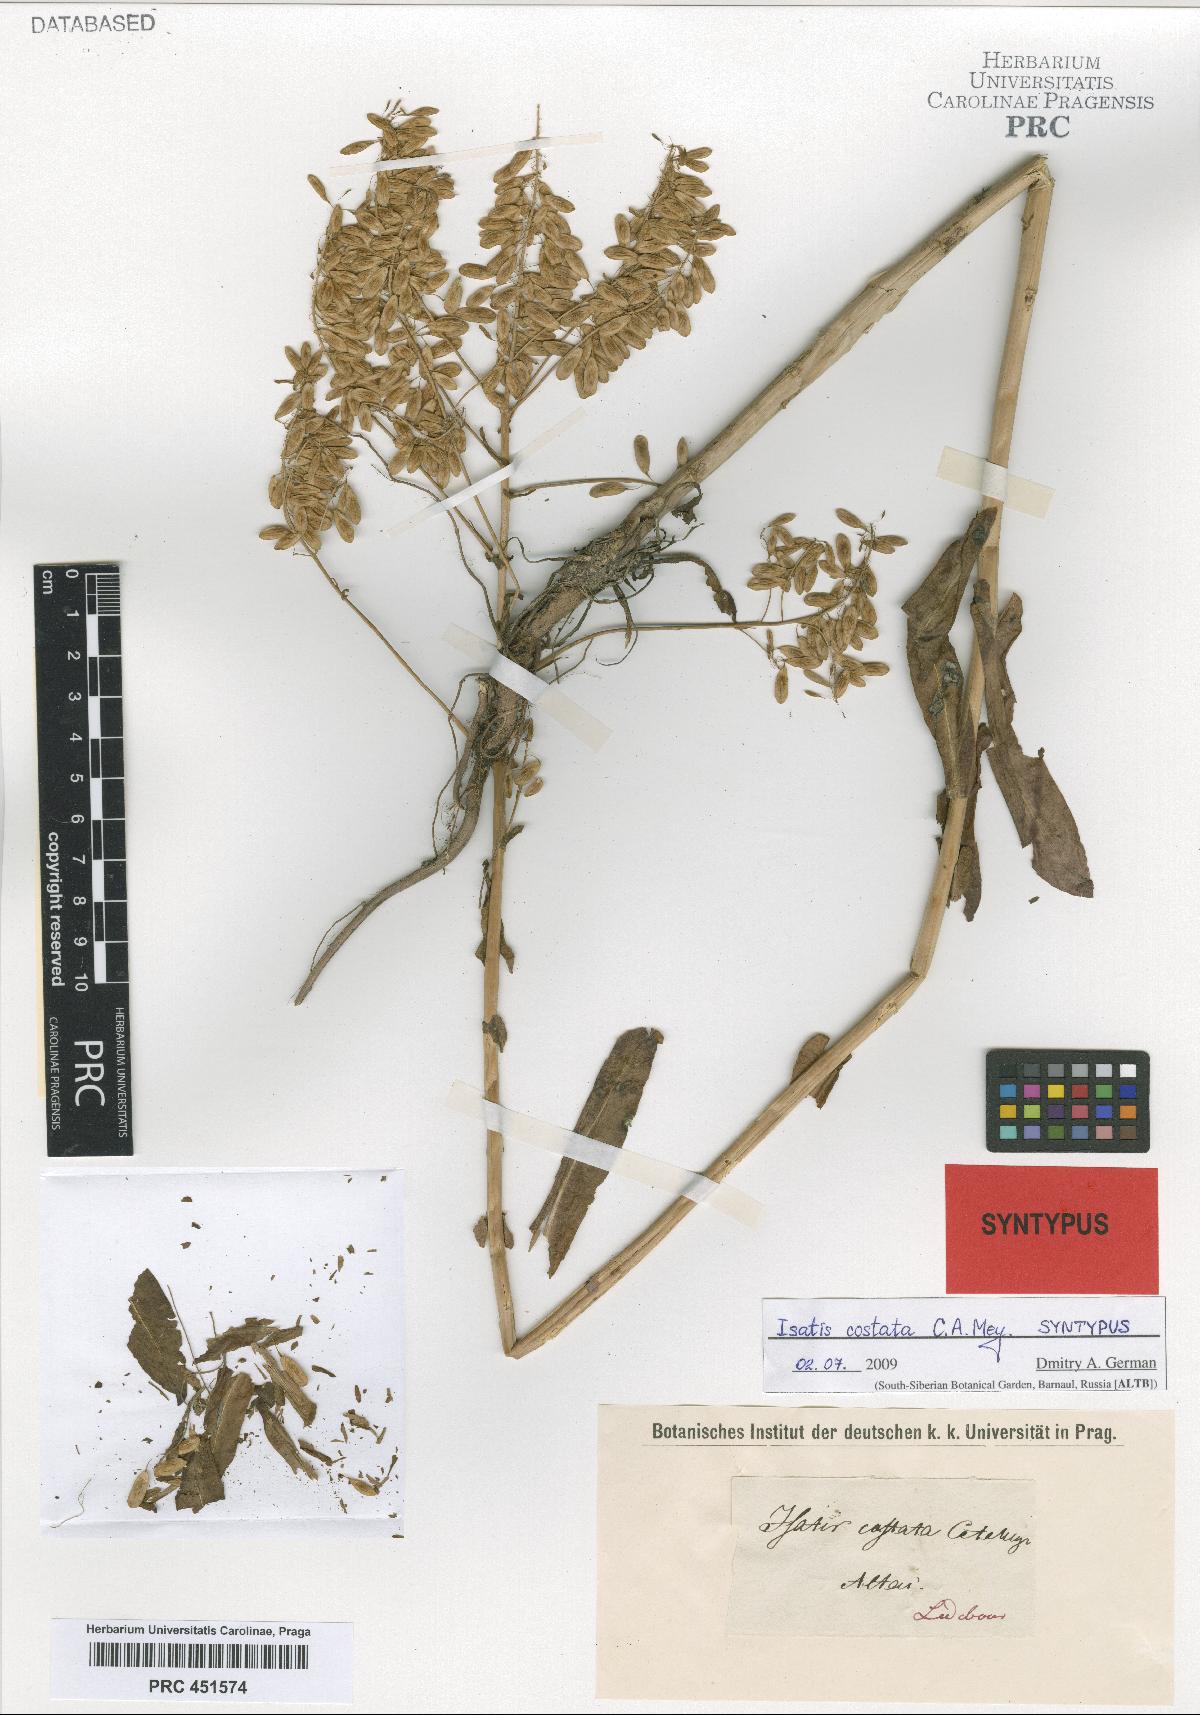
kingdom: Plantae
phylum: Tracheophyta
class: Magnoliopsida
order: Brassicales
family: Brassicaceae
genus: Isatis
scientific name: Isatis costata
